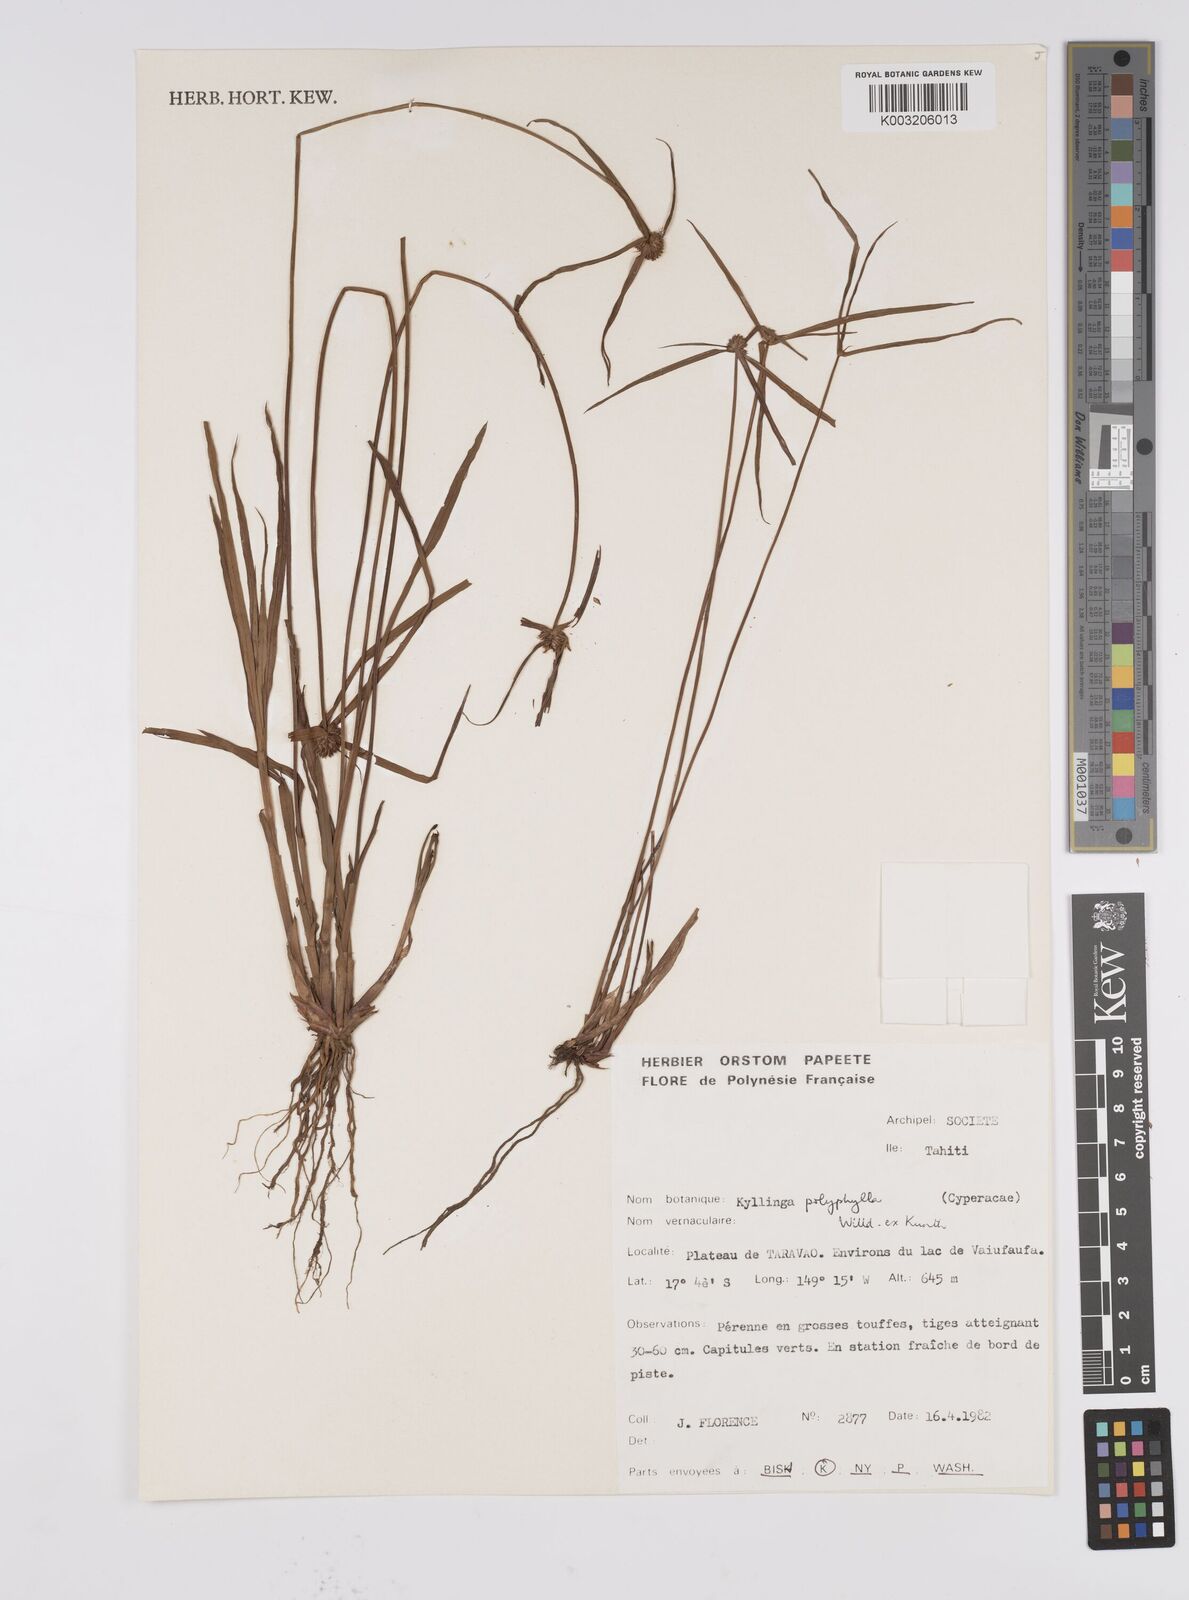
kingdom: Plantae
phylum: Tracheophyta
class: Liliopsida
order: Poales
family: Cyperaceae
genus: Cyperus
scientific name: Cyperus
